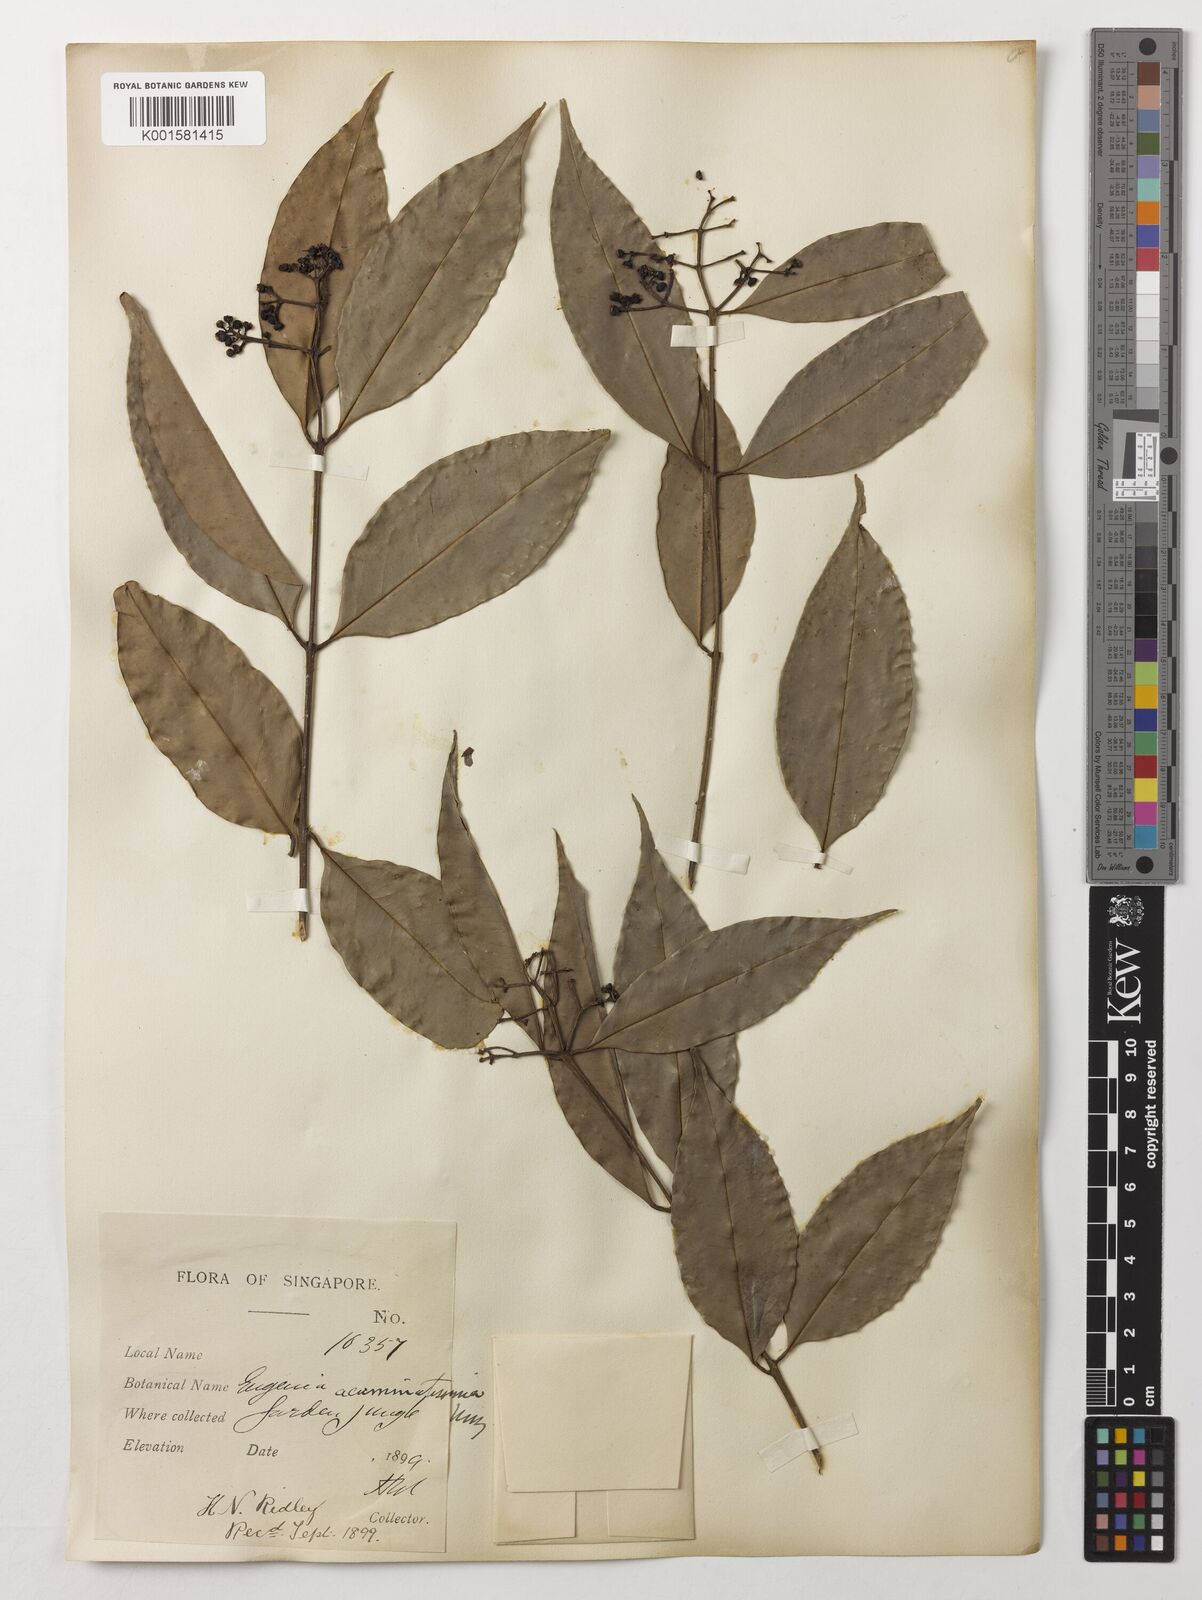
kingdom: Plantae
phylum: Tracheophyta
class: Magnoliopsida
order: Myrtales
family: Myrtaceae
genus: Eugenia
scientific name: Eugenia biflora
